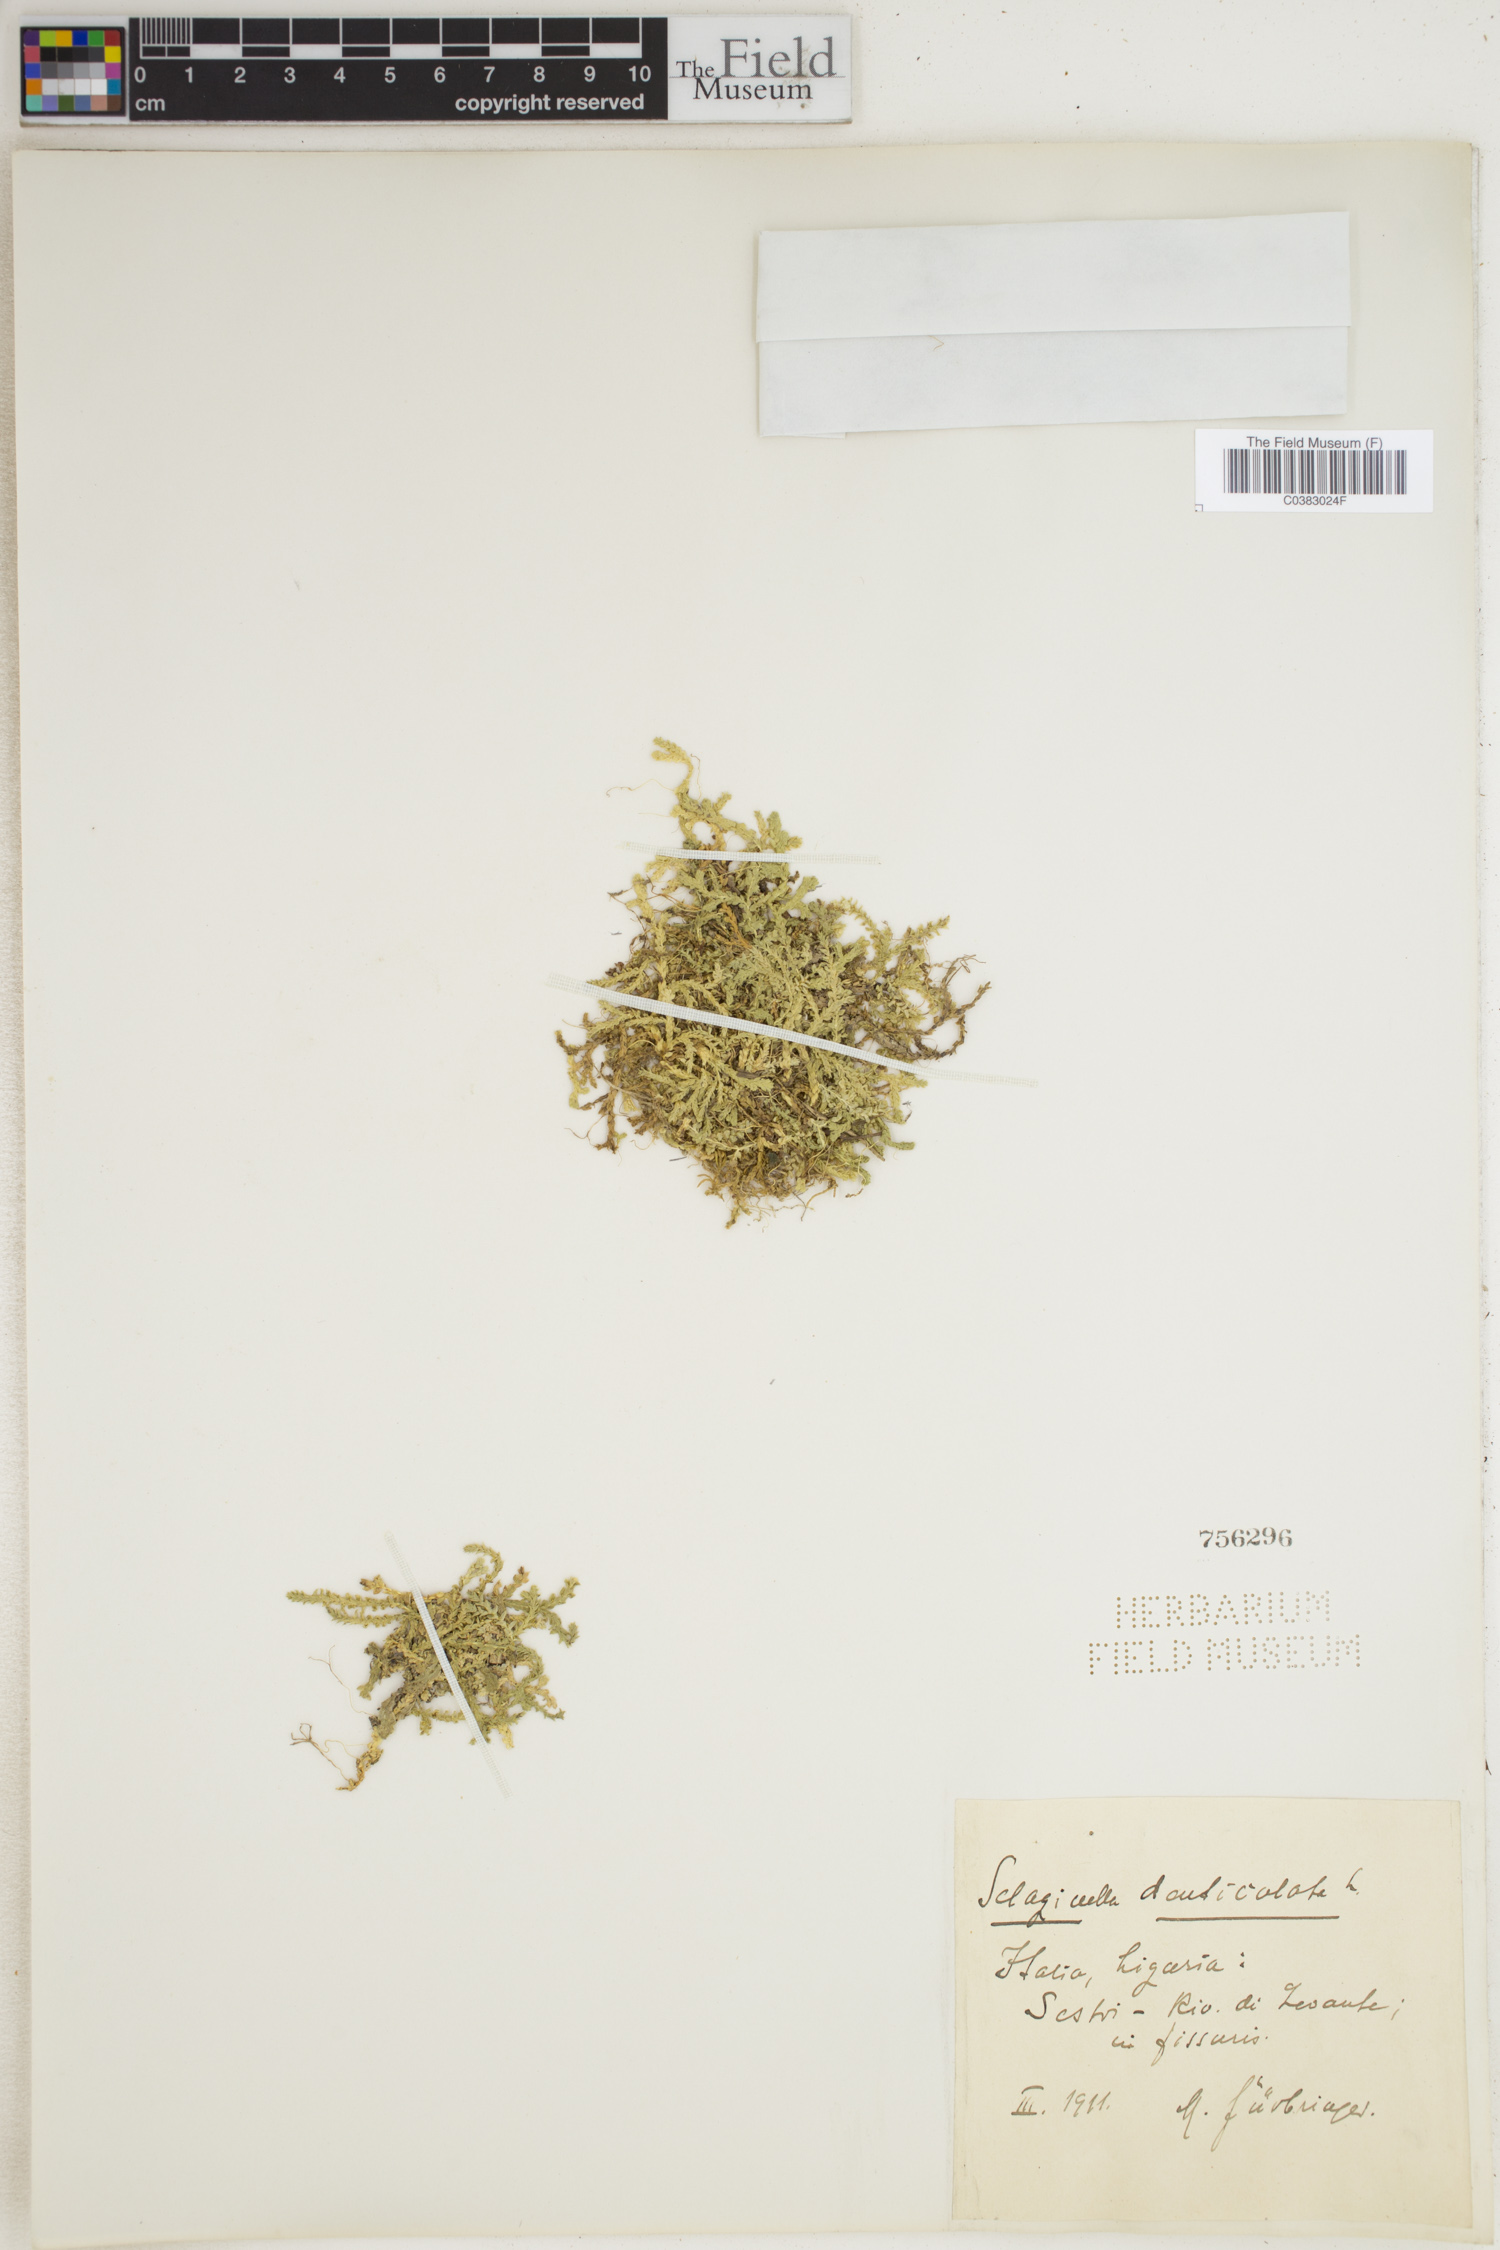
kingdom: Plantae
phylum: Tracheophyta
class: Lycopodiopsida
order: Selaginellales
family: Selaginellaceae
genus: Selaginella
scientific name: Selaginella denticulata
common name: Toothed-leaved clubmoss
